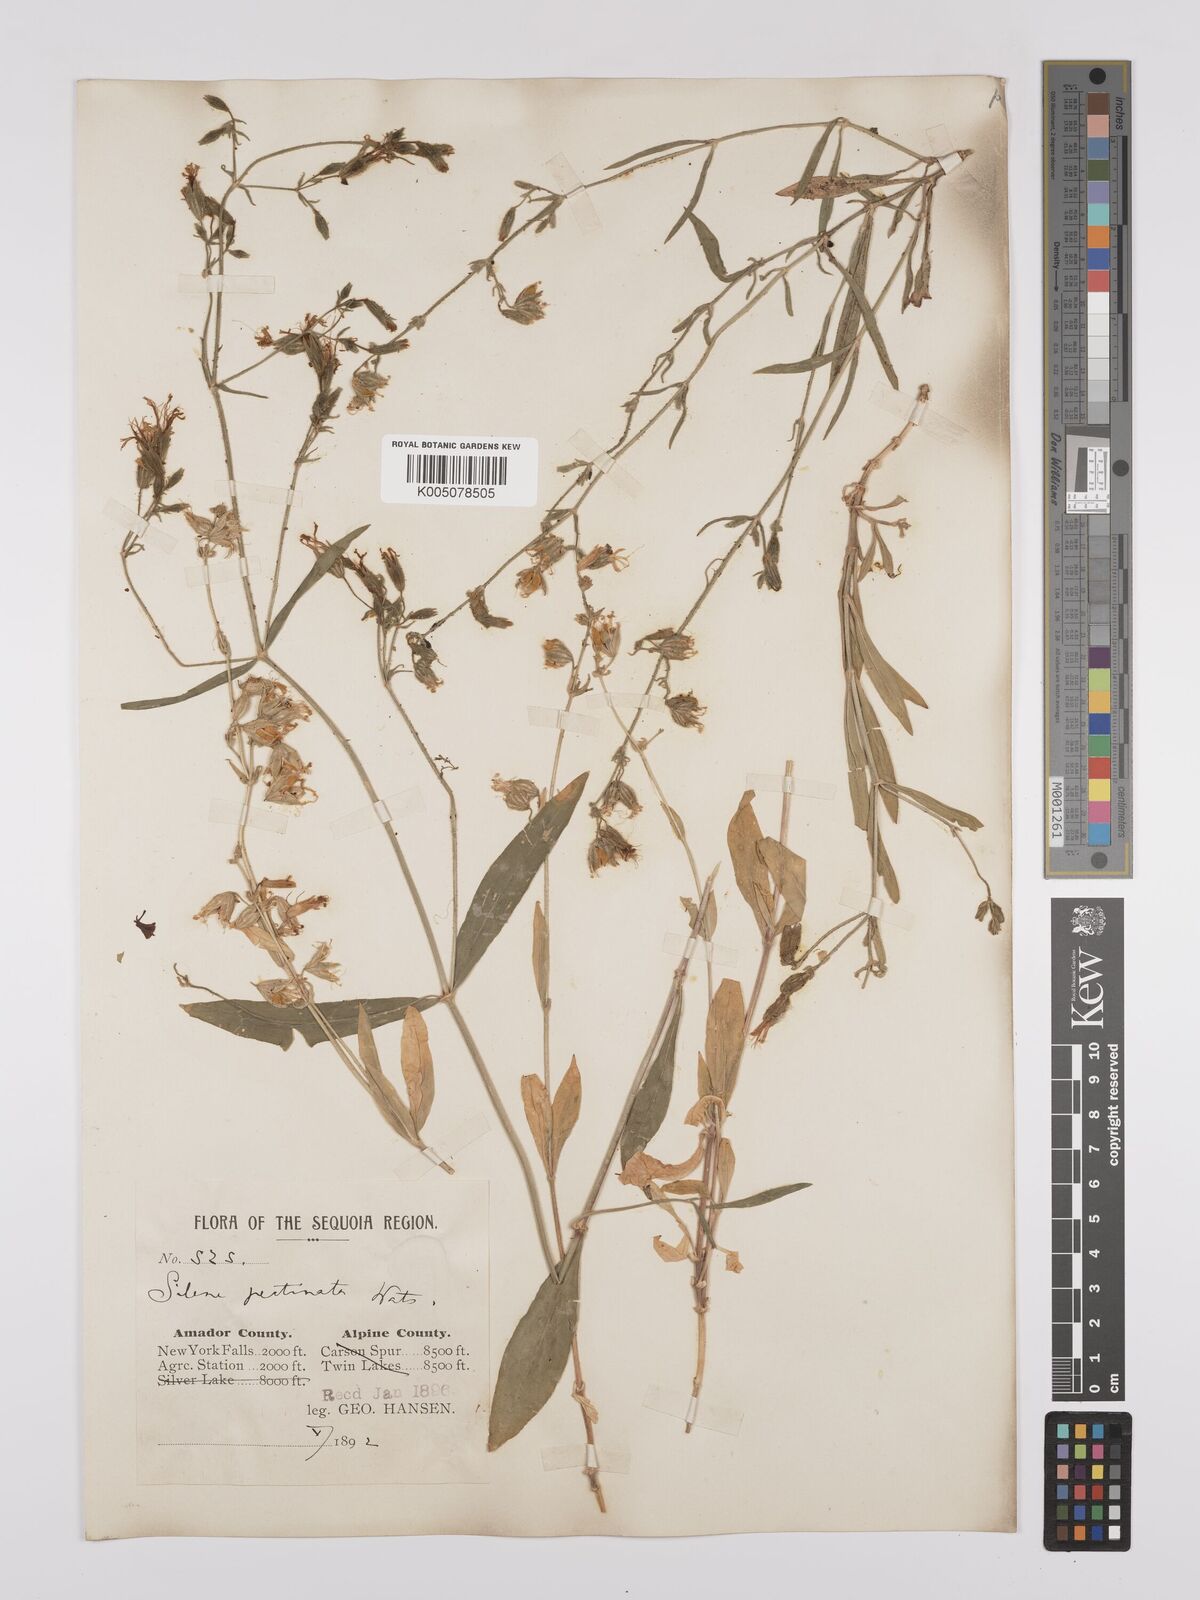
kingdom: Plantae
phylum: Tracheophyta
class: Magnoliopsida
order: Caryophyllales
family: Caryophyllaceae
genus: Silene
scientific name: Silene lemmonii
